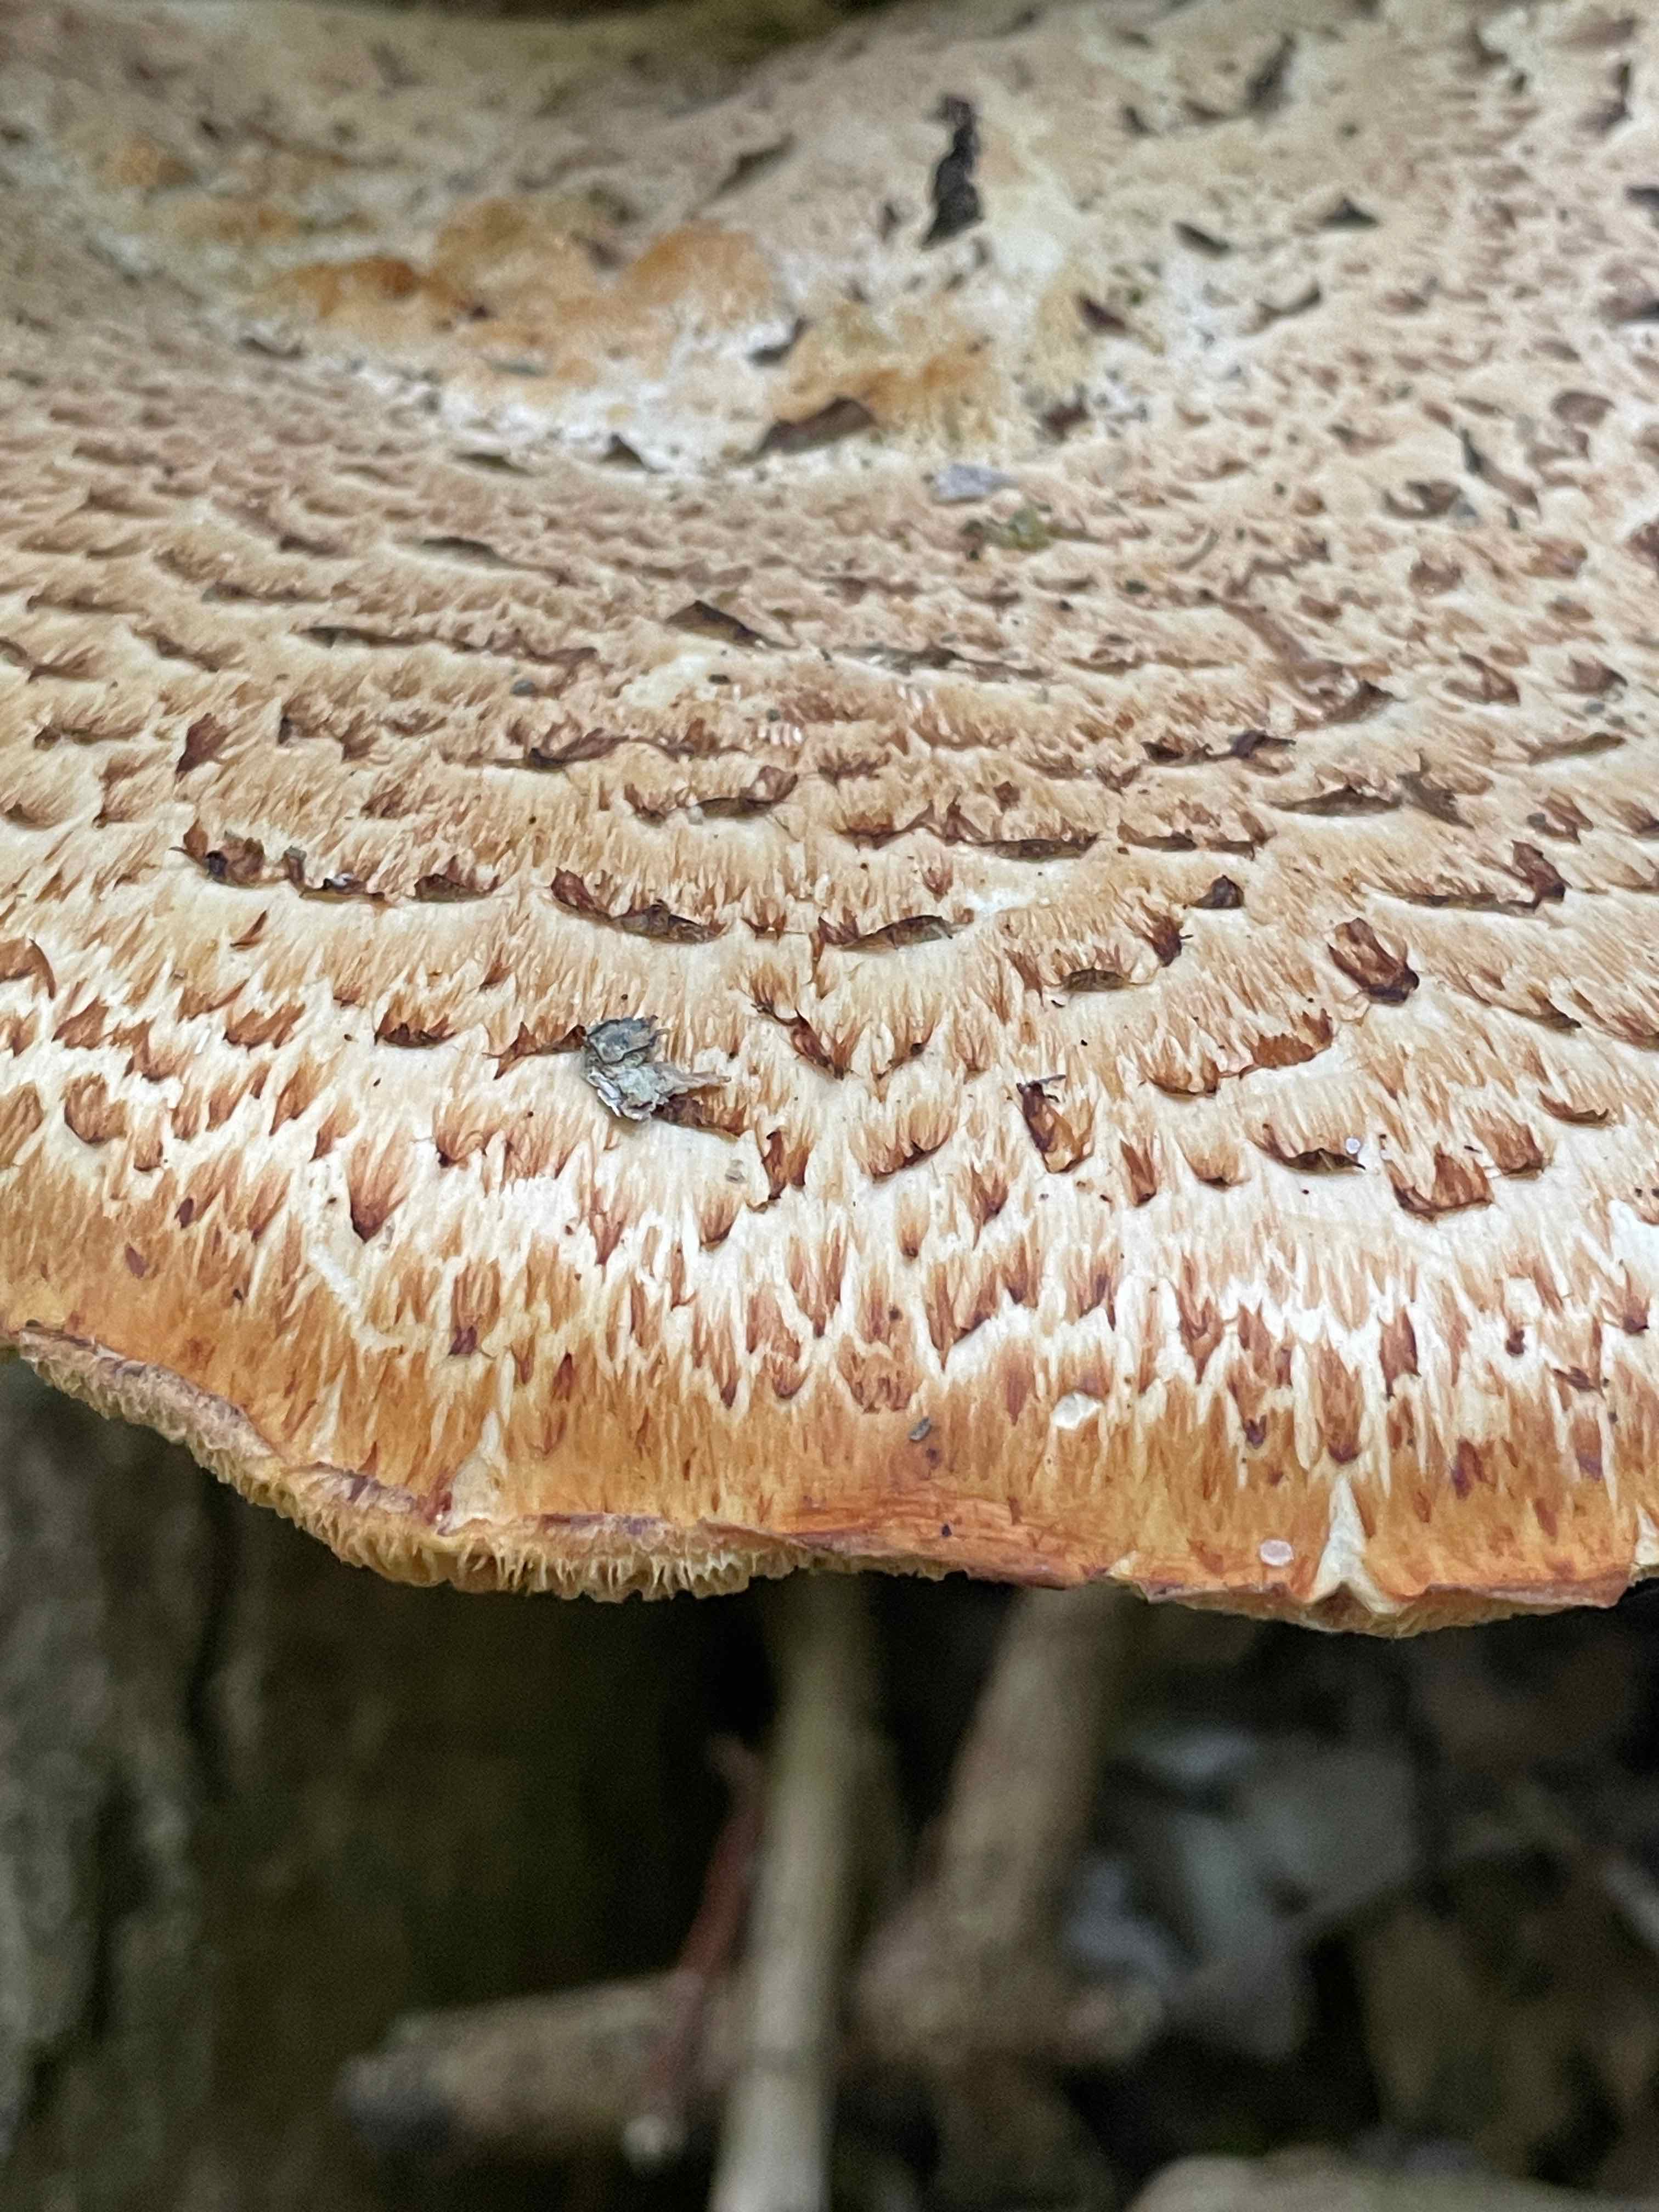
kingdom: Fungi
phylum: Basidiomycota
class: Agaricomycetes
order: Polyporales
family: Polyporaceae
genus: Cerioporus
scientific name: Cerioporus squamosus
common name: skællet stilkporesvamp
